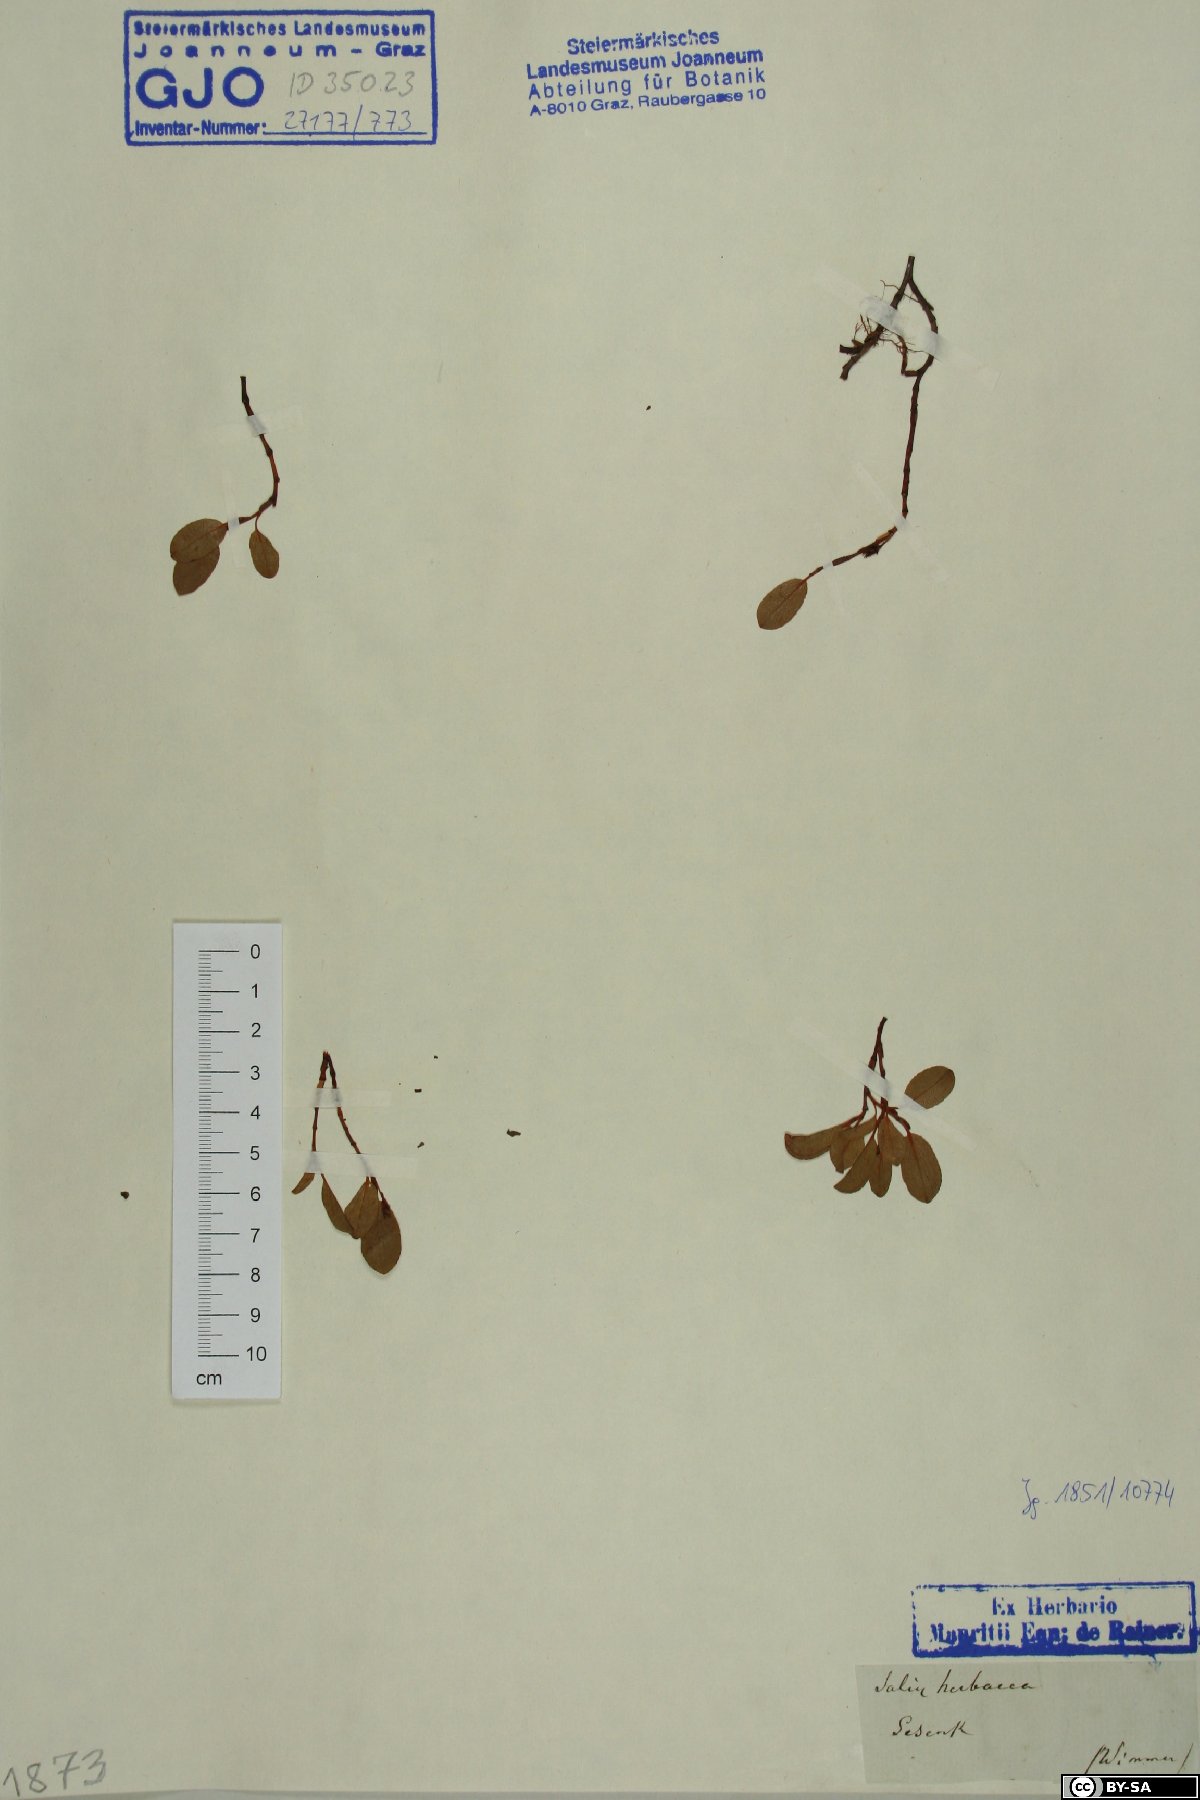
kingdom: Plantae
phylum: Tracheophyta
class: Magnoliopsida
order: Malpighiales
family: Salicaceae
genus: Salix
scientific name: Salix herbacea
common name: Dwarf willow
